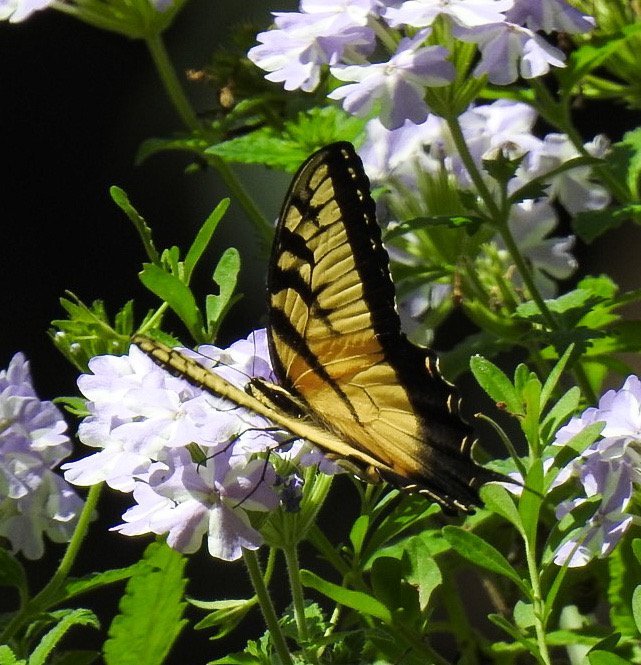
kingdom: Animalia
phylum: Arthropoda
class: Insecta
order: Lepidoptera
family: Papilionidae
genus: Pterourus
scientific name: Pterourus glaucus
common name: Eastern Tiger Swallowtail
